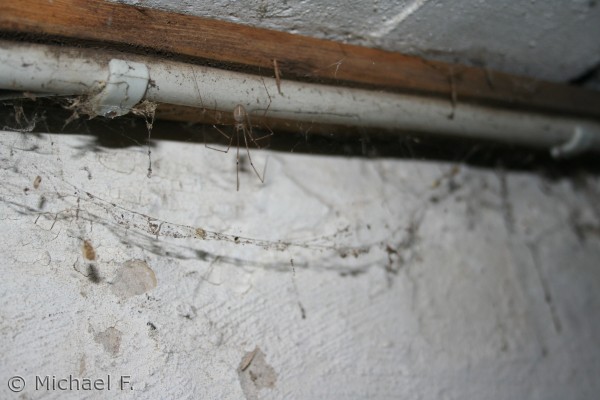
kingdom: Animalia
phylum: Arthropoda
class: Arachnida
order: Araneae
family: Pholcidae
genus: Pholcus
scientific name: Pholcus phalangioides
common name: Mejeredderkop
